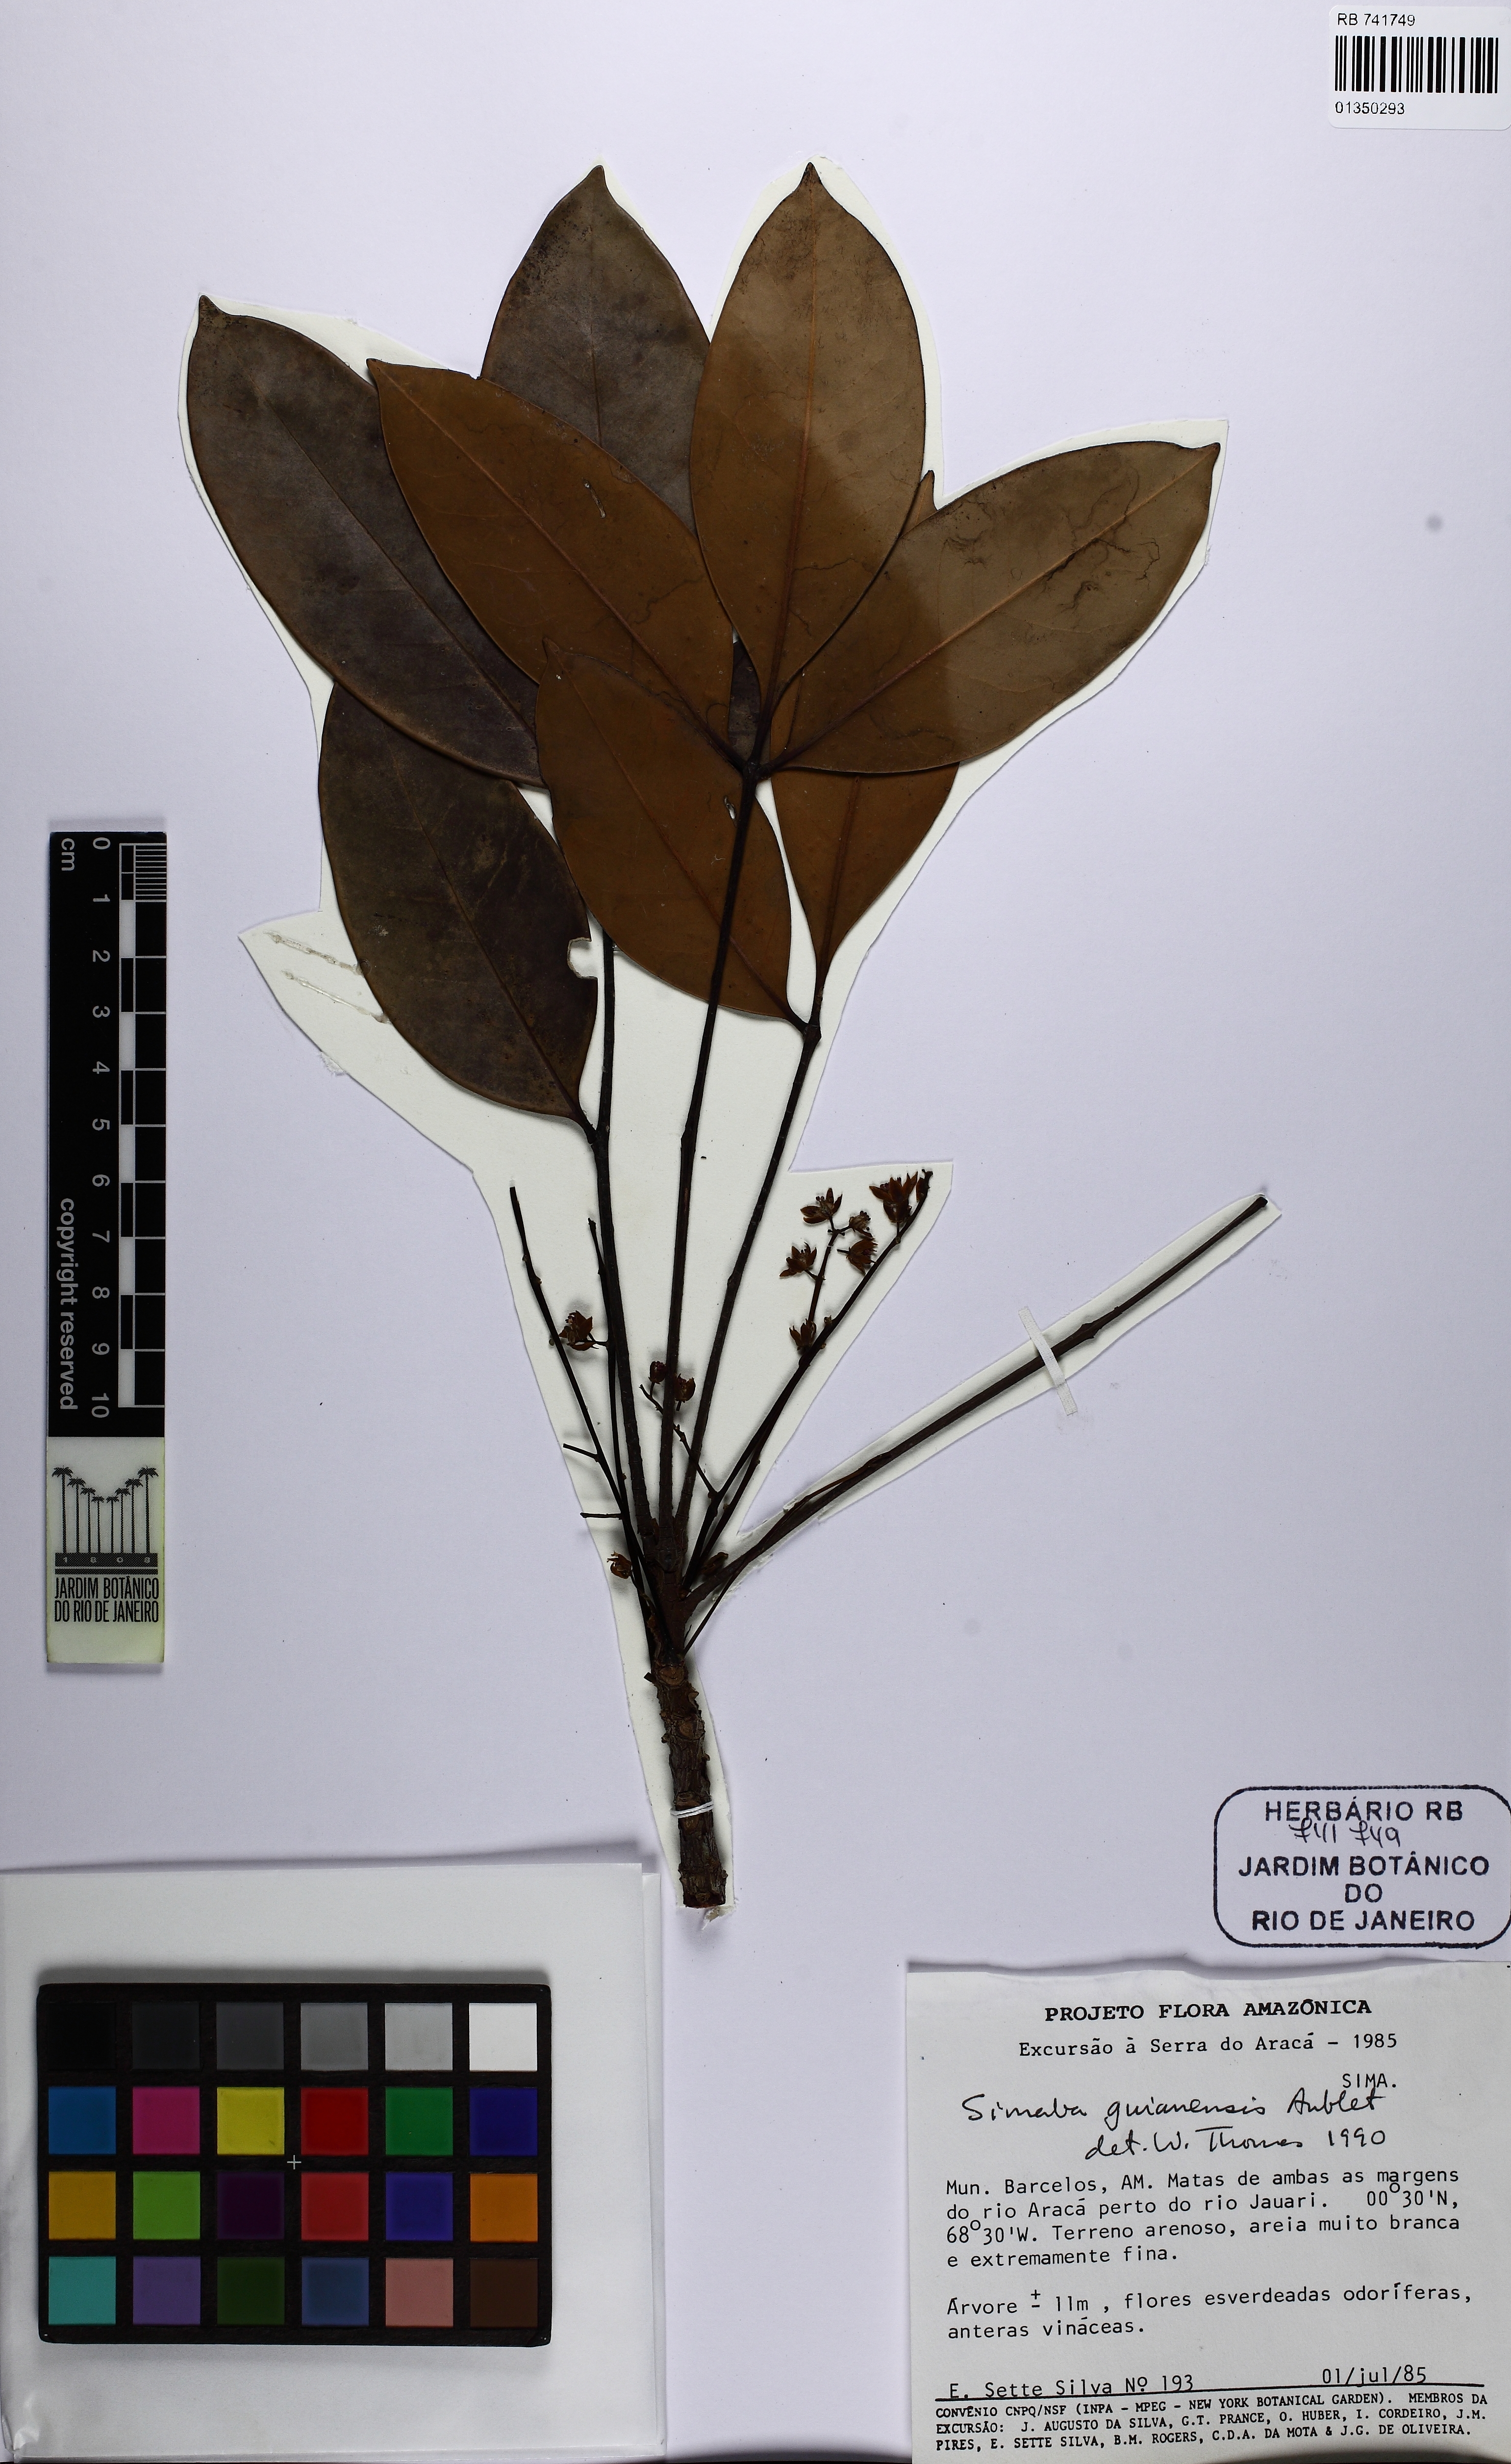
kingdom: Plantae
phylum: Tracheophyta
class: Magnoliopsida
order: Sapindales
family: Simaroubaceae
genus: Simaba
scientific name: Simaba guianensis
